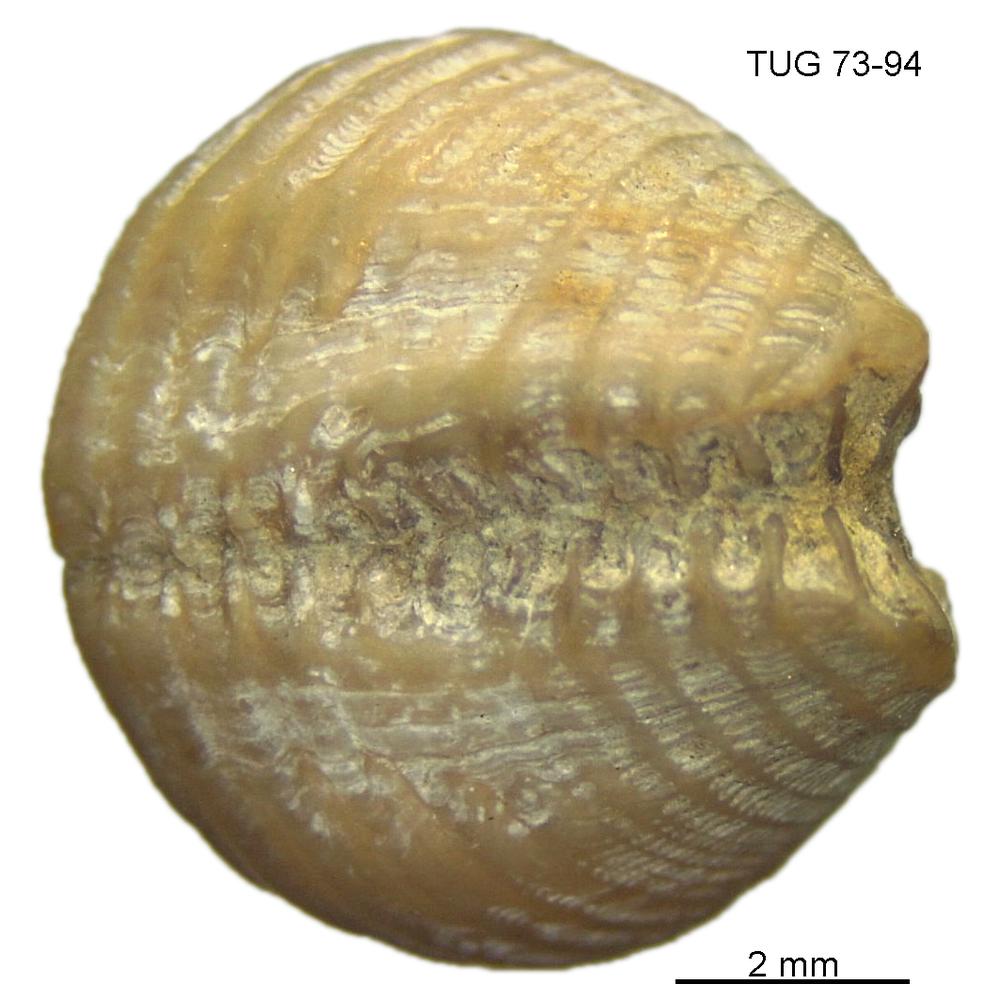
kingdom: Animalia
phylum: Mollusca
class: Rostroconchia
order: Conocardiida
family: Bransoniidae
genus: Mulceodens
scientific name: Mulceodens jaanussoni
